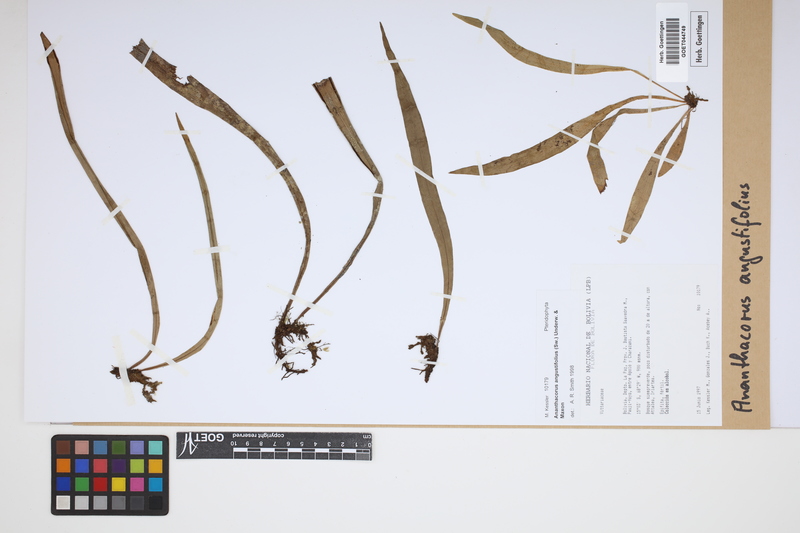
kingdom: Plantae
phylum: Tracheophyta
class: Polypodiopsida
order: Polypodiales
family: Pteridaceae
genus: Ananthacorus
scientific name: Ananthacorus angustifolius
